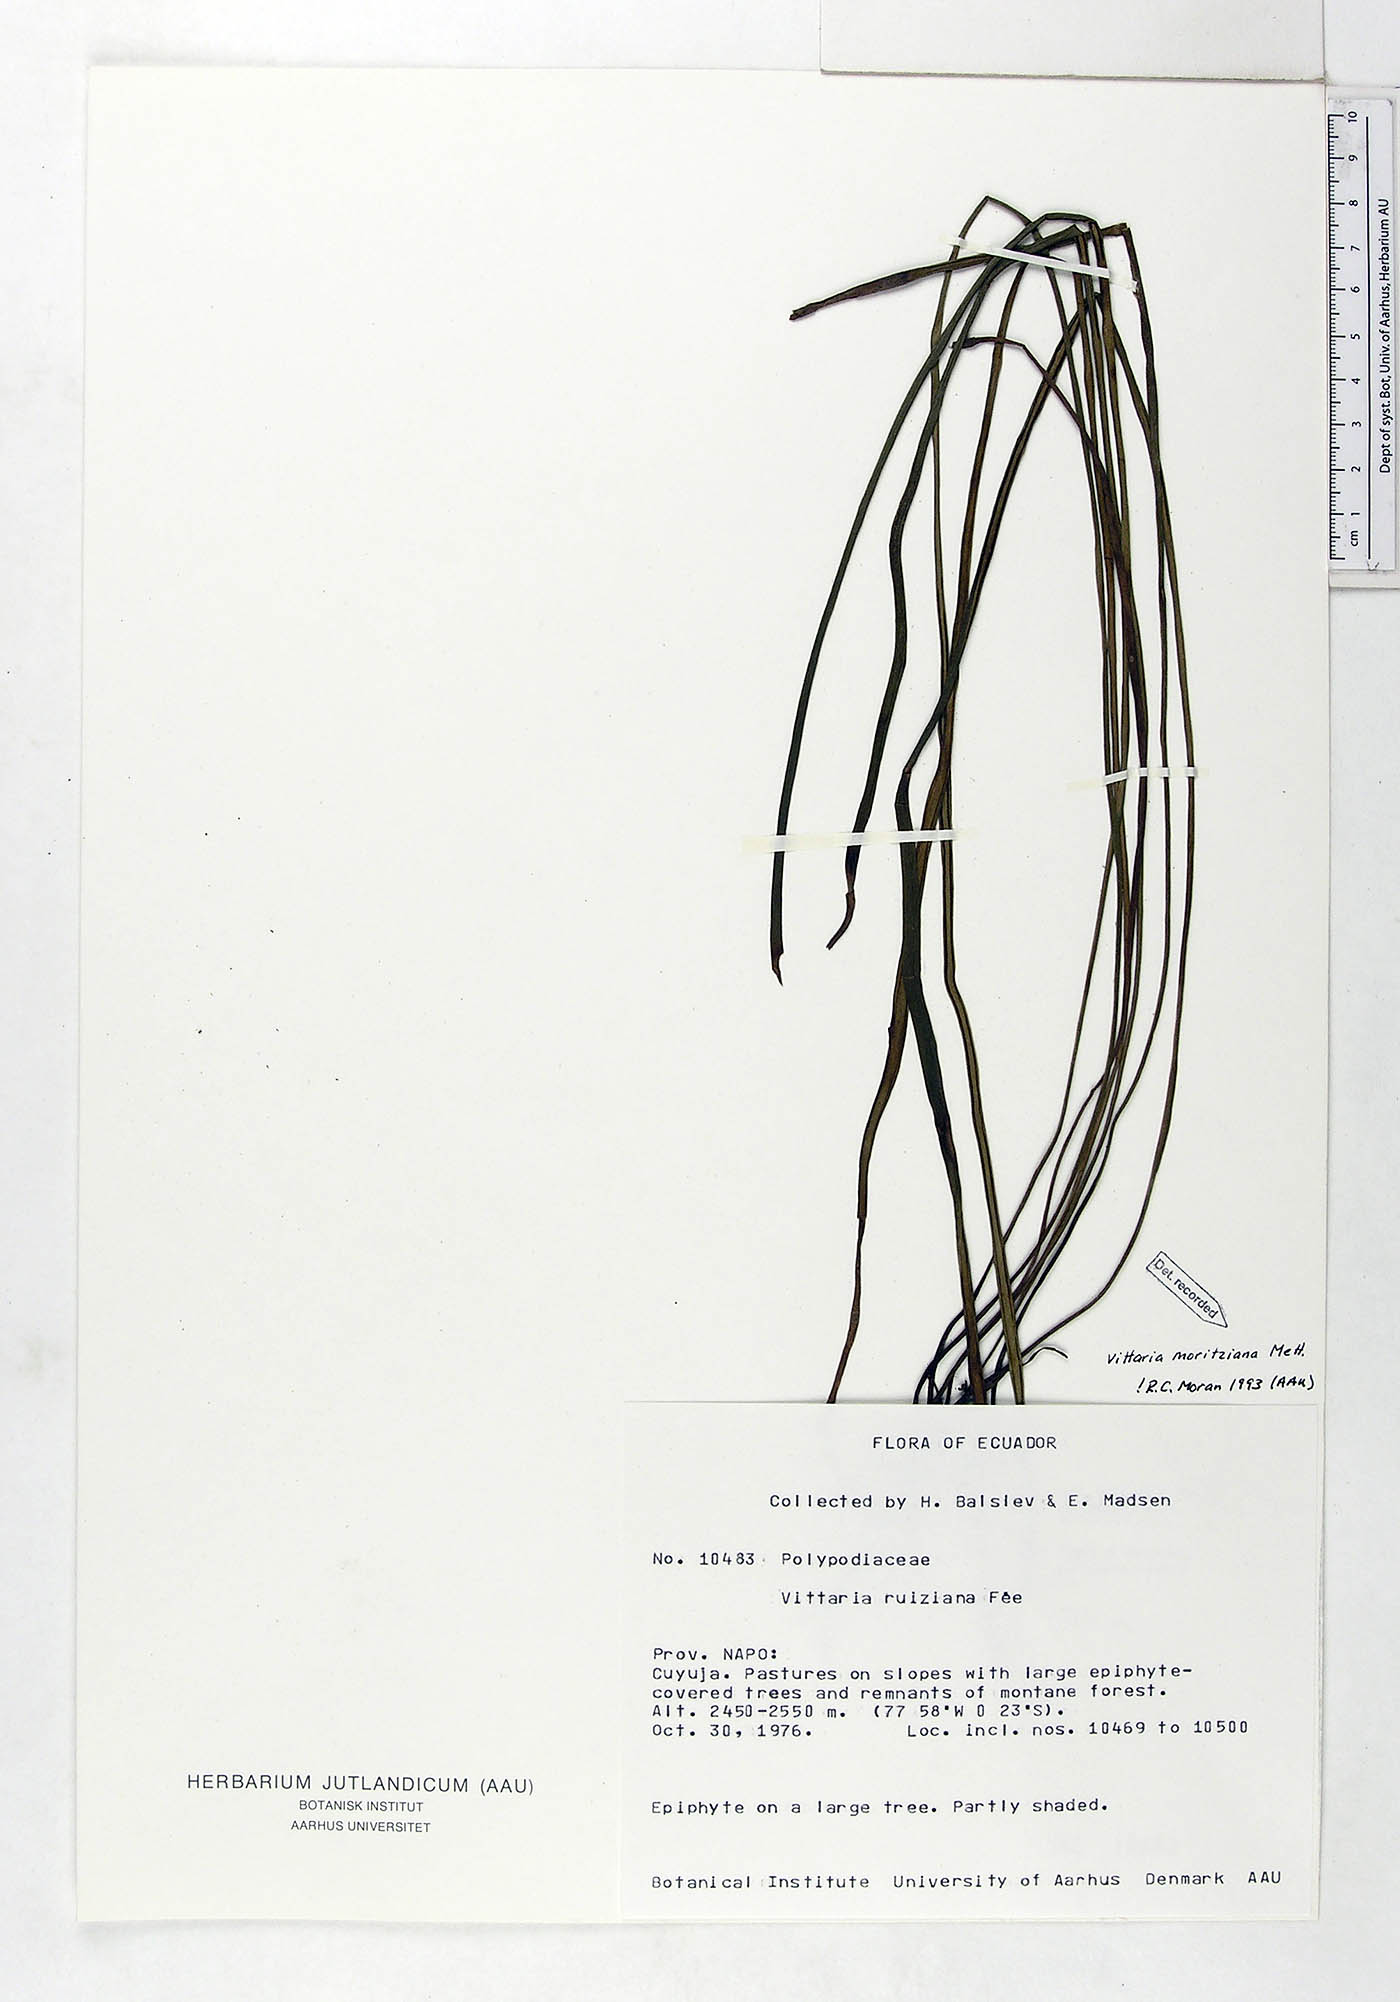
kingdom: Plantae
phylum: Tracheophyta
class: Polypodiopsida
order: Polypodiales
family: Pteridaceae
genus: Radiovittaria
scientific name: Radiovittaria moritziana
